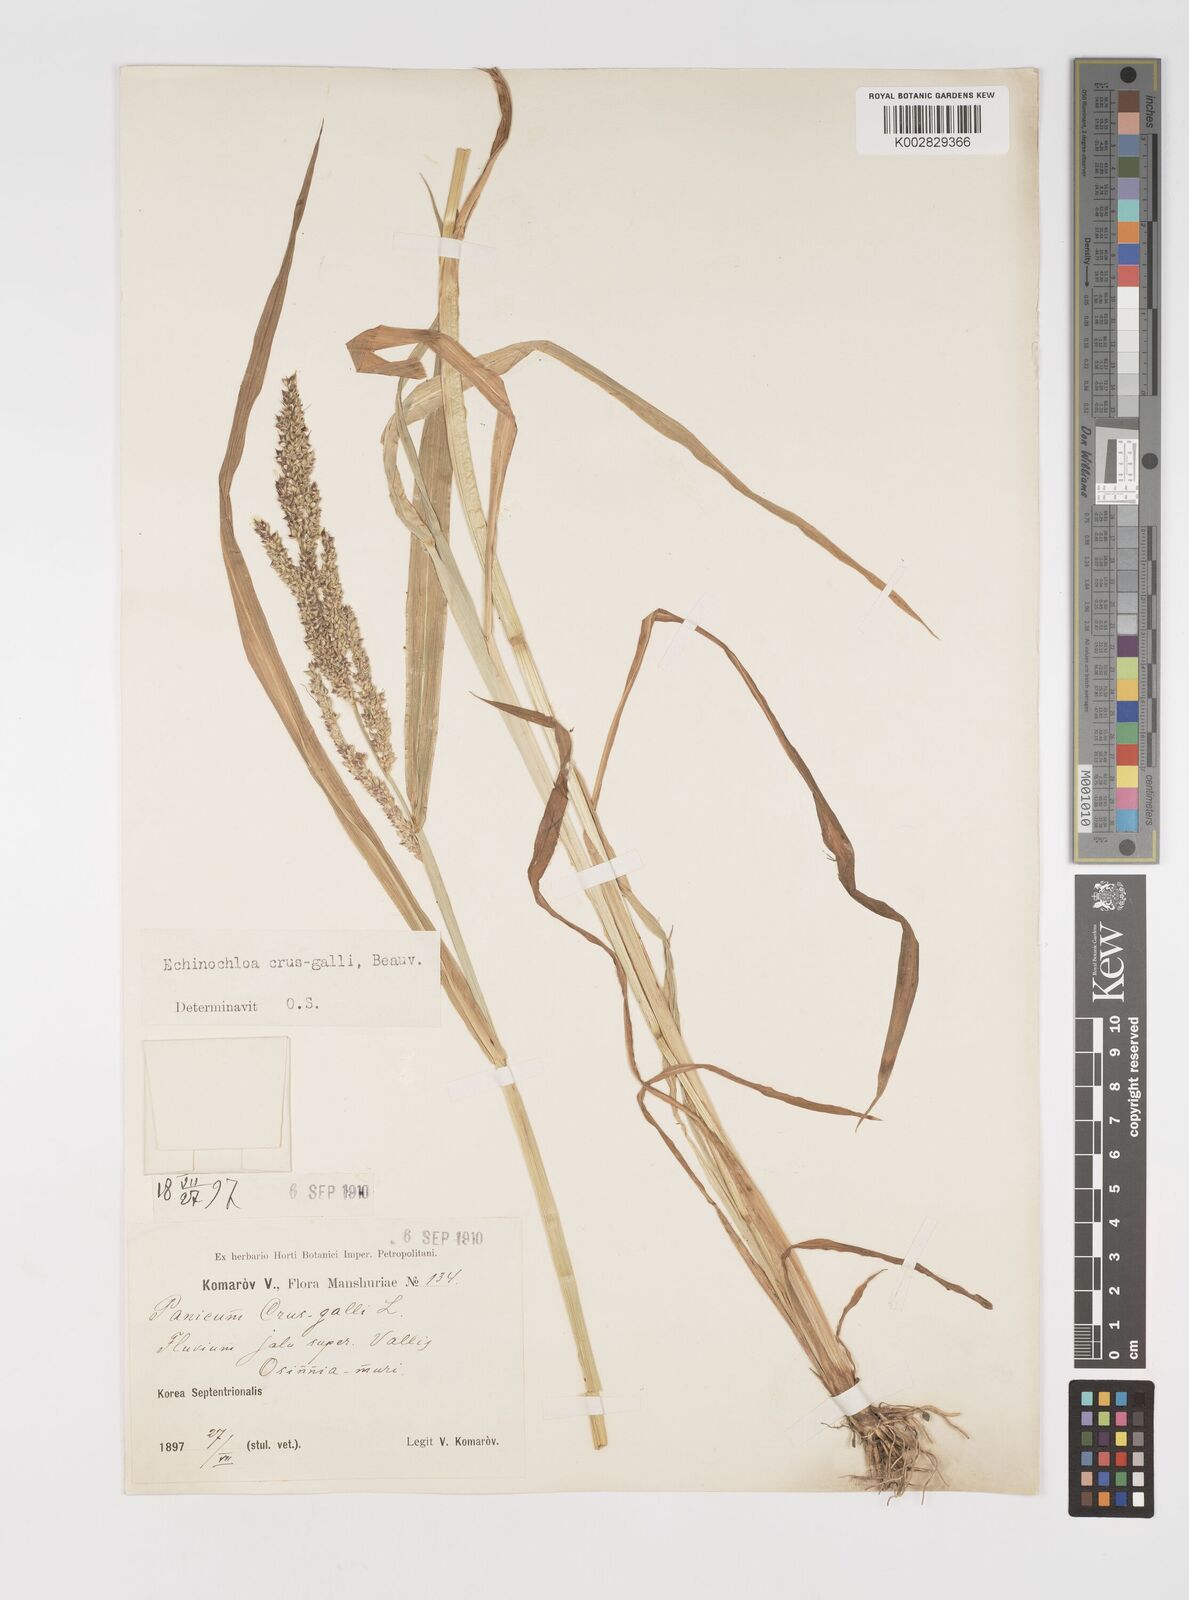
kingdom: Plantae
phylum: Tracheophyta
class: Liliopsida
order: Poales
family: Poaceae
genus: Echinochloa
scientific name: Echinochloa crus-galli
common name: Cockspur
